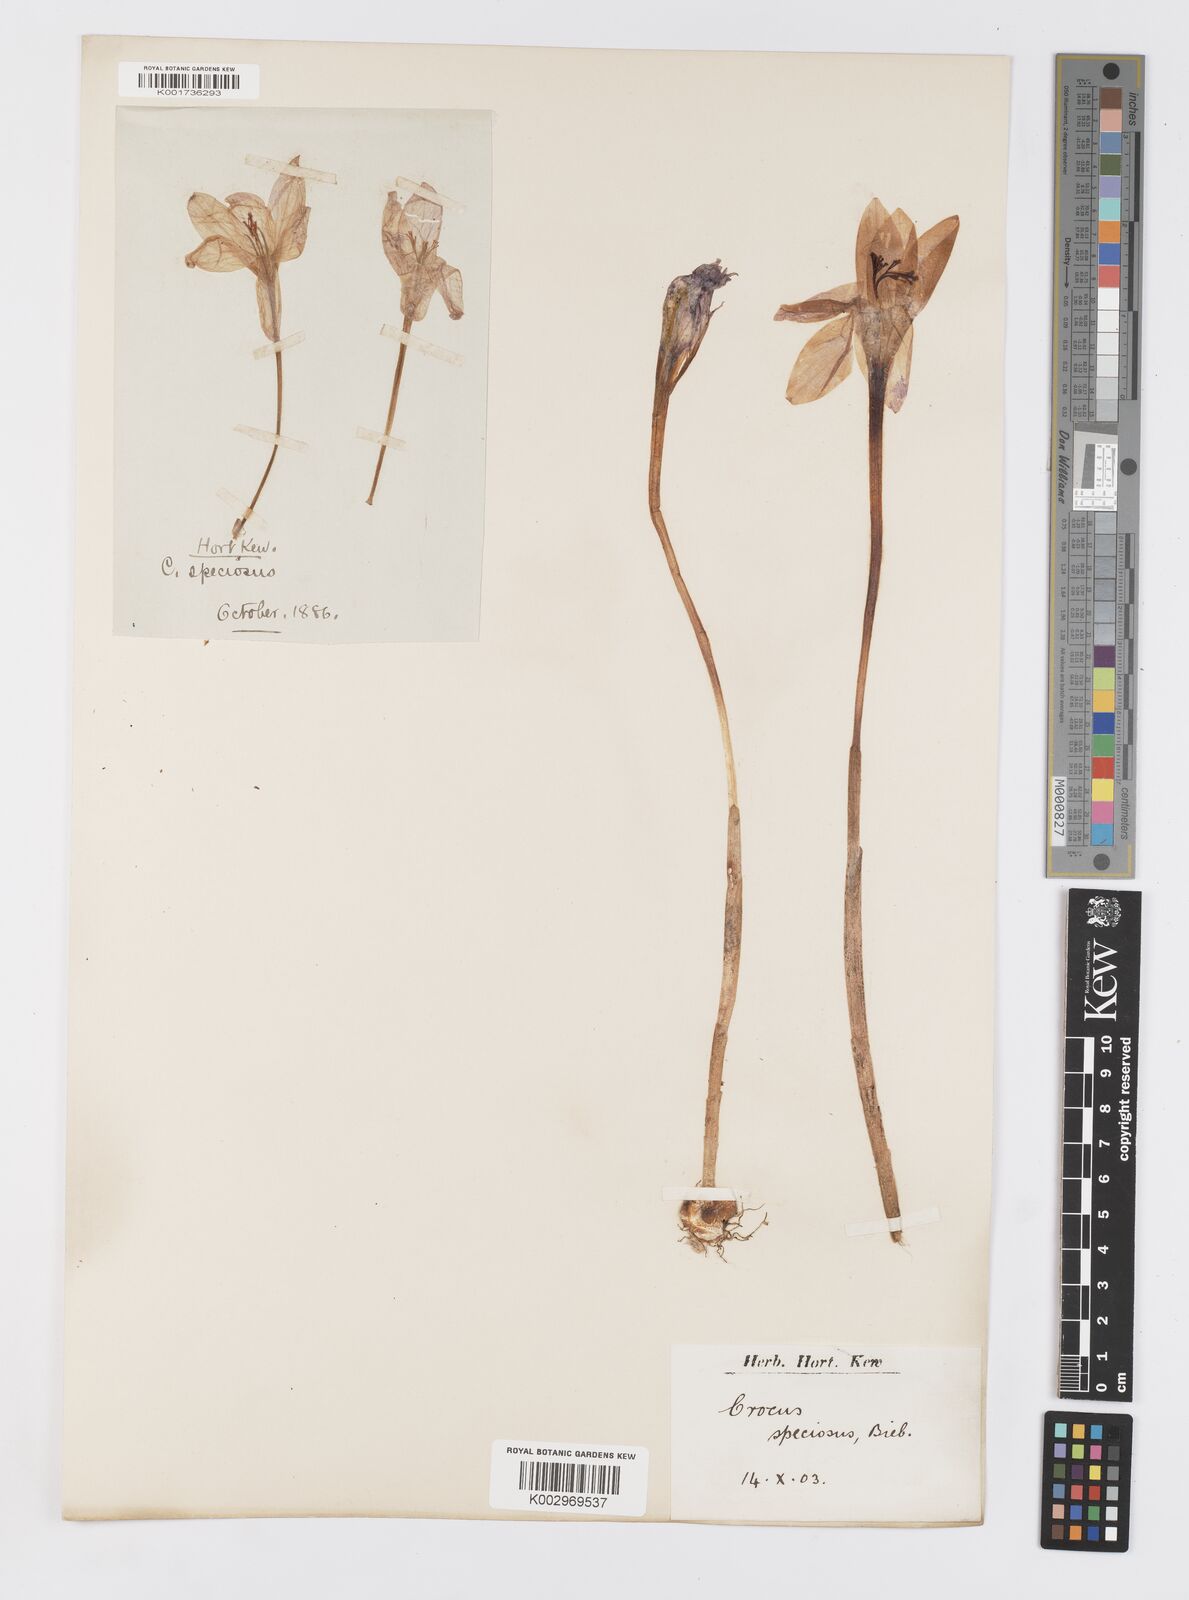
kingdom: Plantae
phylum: Tracheophyta
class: Liliopsida
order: Asparagales
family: Iridaceae
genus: Crocus
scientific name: Crocus speciosus
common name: Bieberstein's crocus
